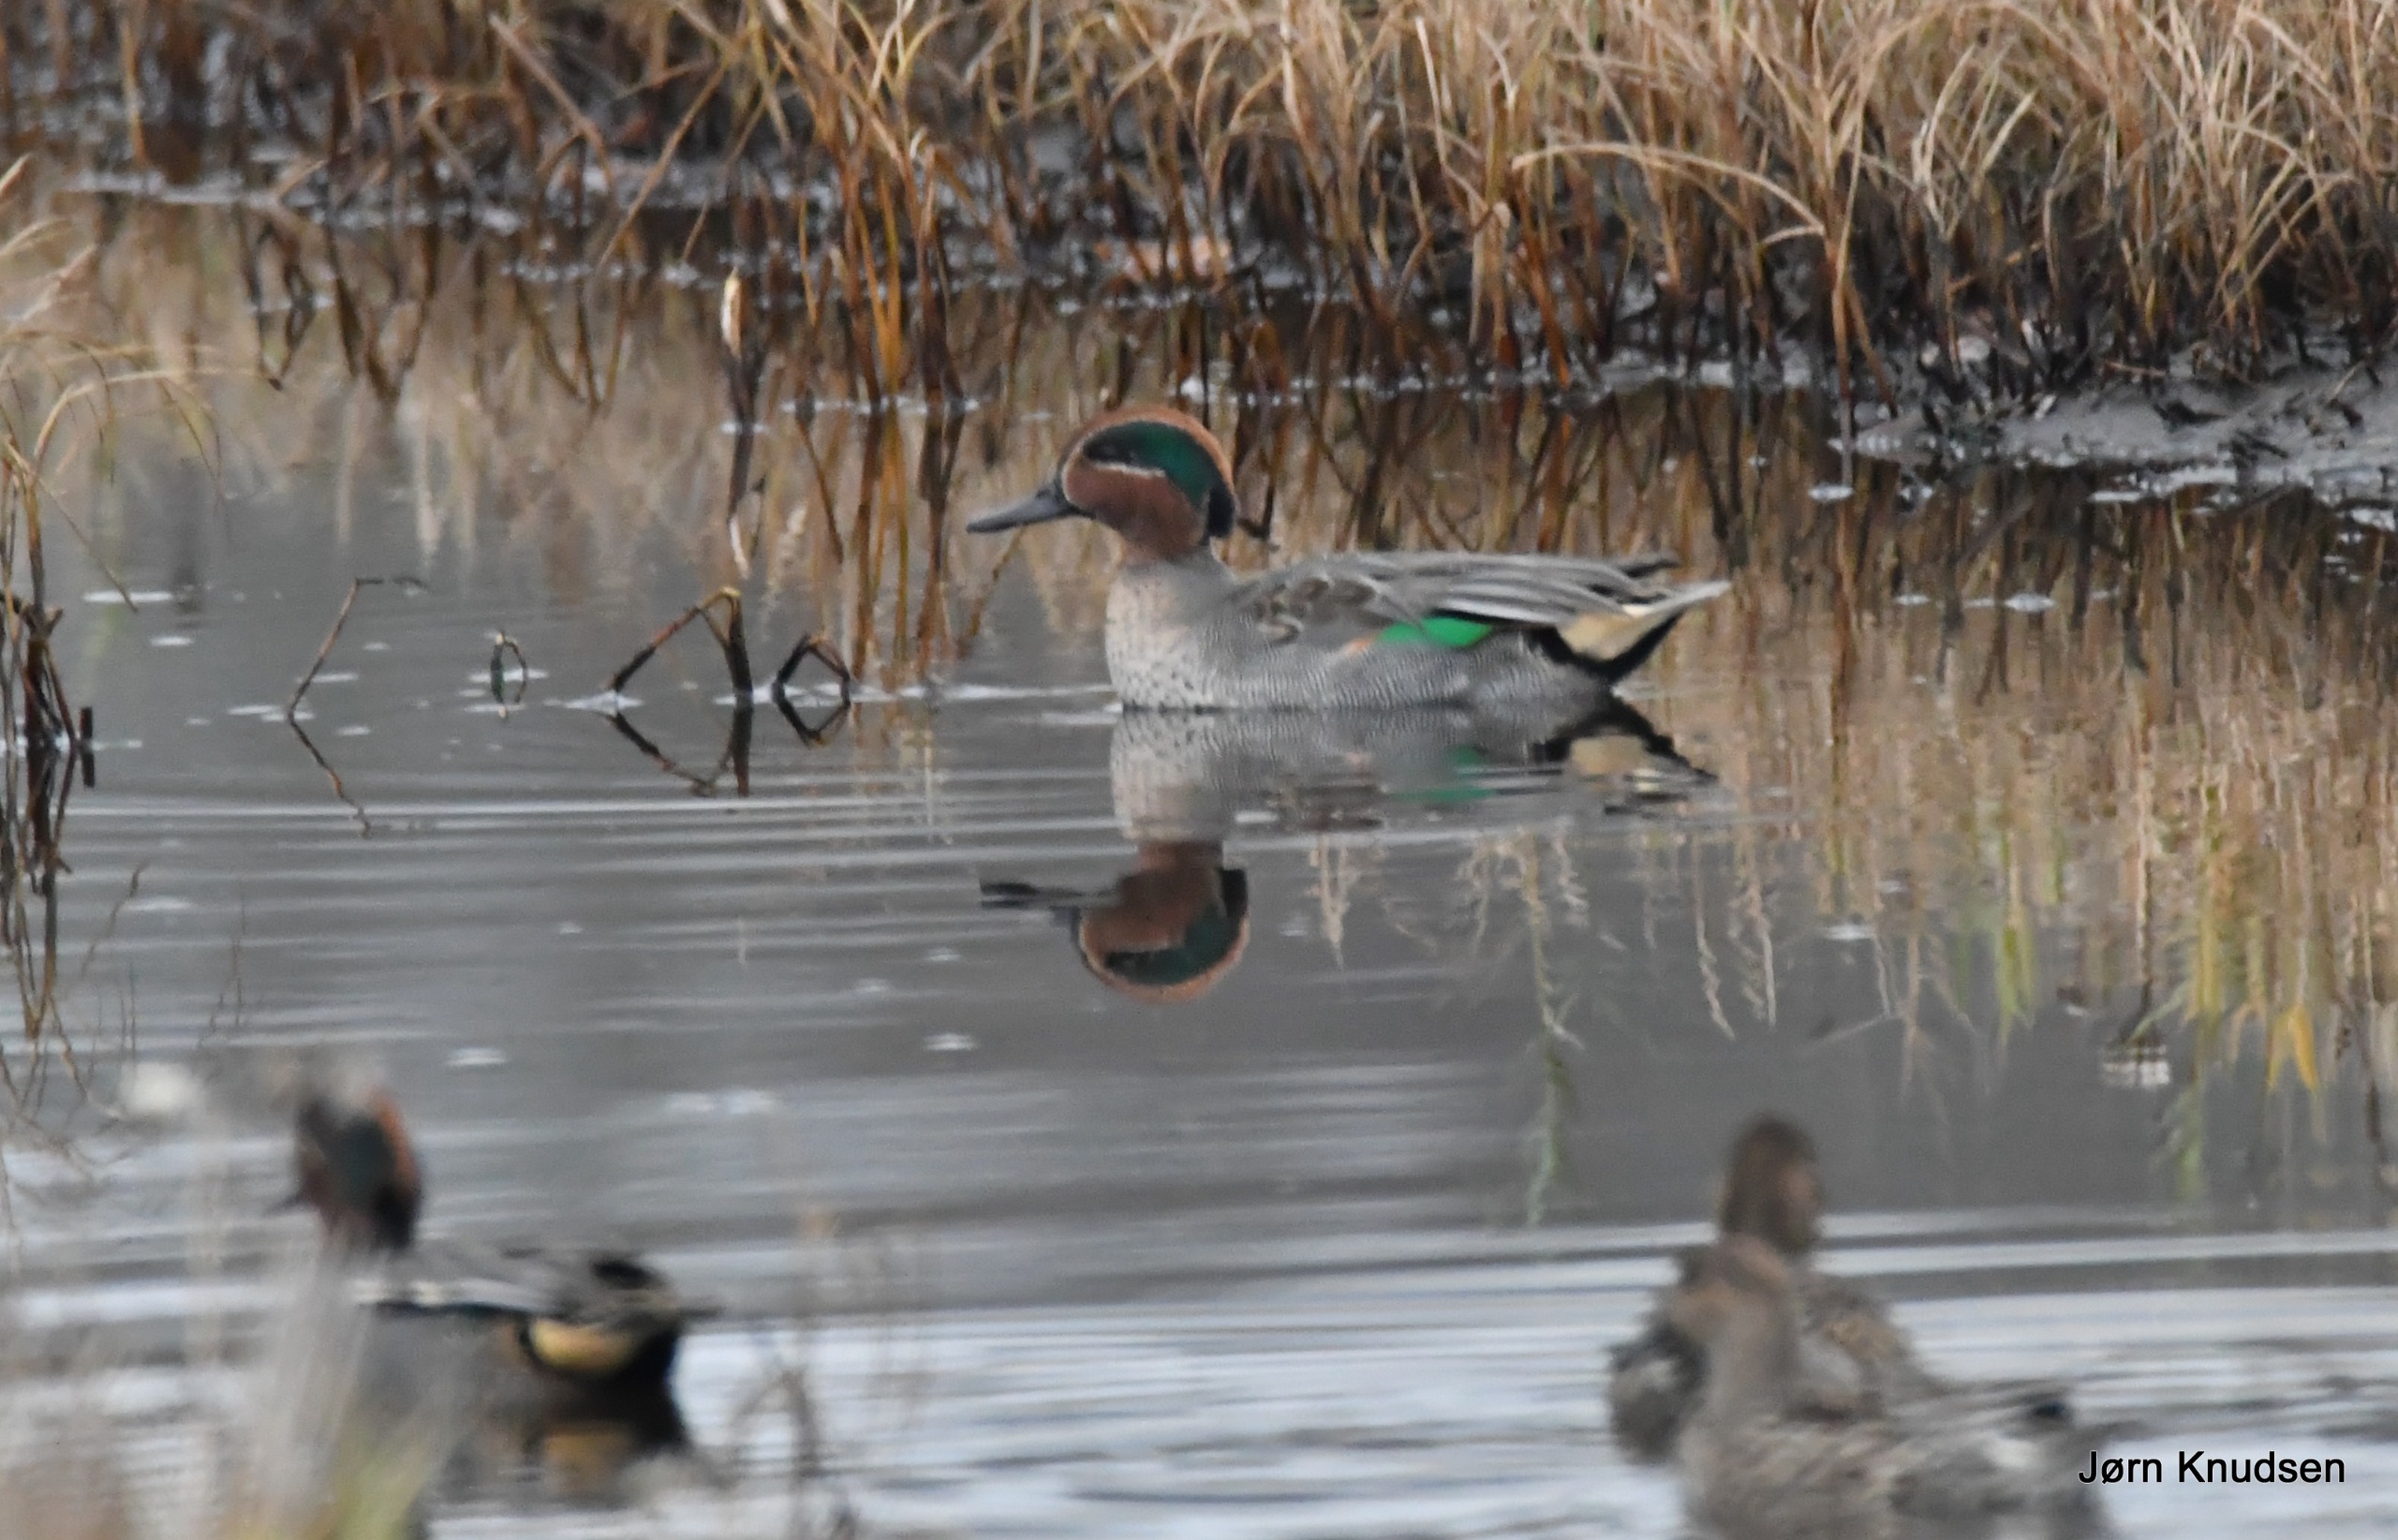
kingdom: Animalia
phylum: Chordata
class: Aves
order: Anseriformes
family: Anatidae
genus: Anas
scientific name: Anas crecca
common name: Krikand
